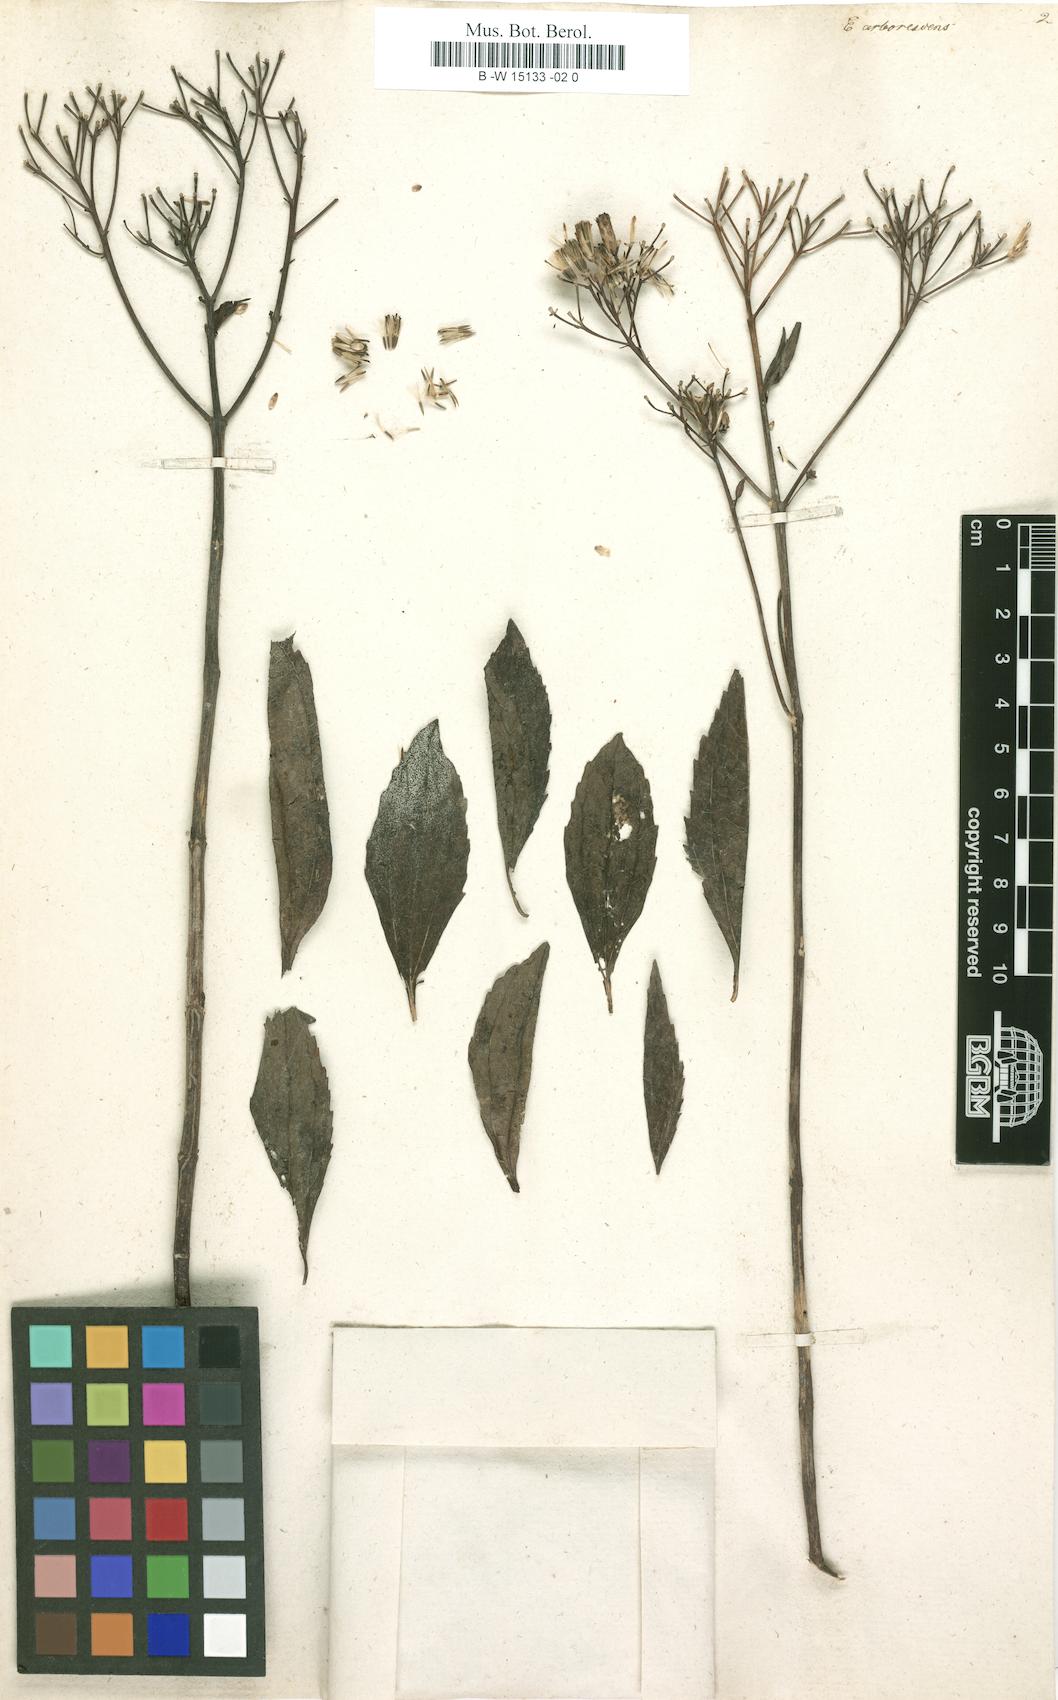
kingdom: Plantae
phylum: Tracheophyta
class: Magnoliopsida
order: Asterales
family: Asteraceae
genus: Koanophyllon
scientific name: Koanophyllon palmeri
